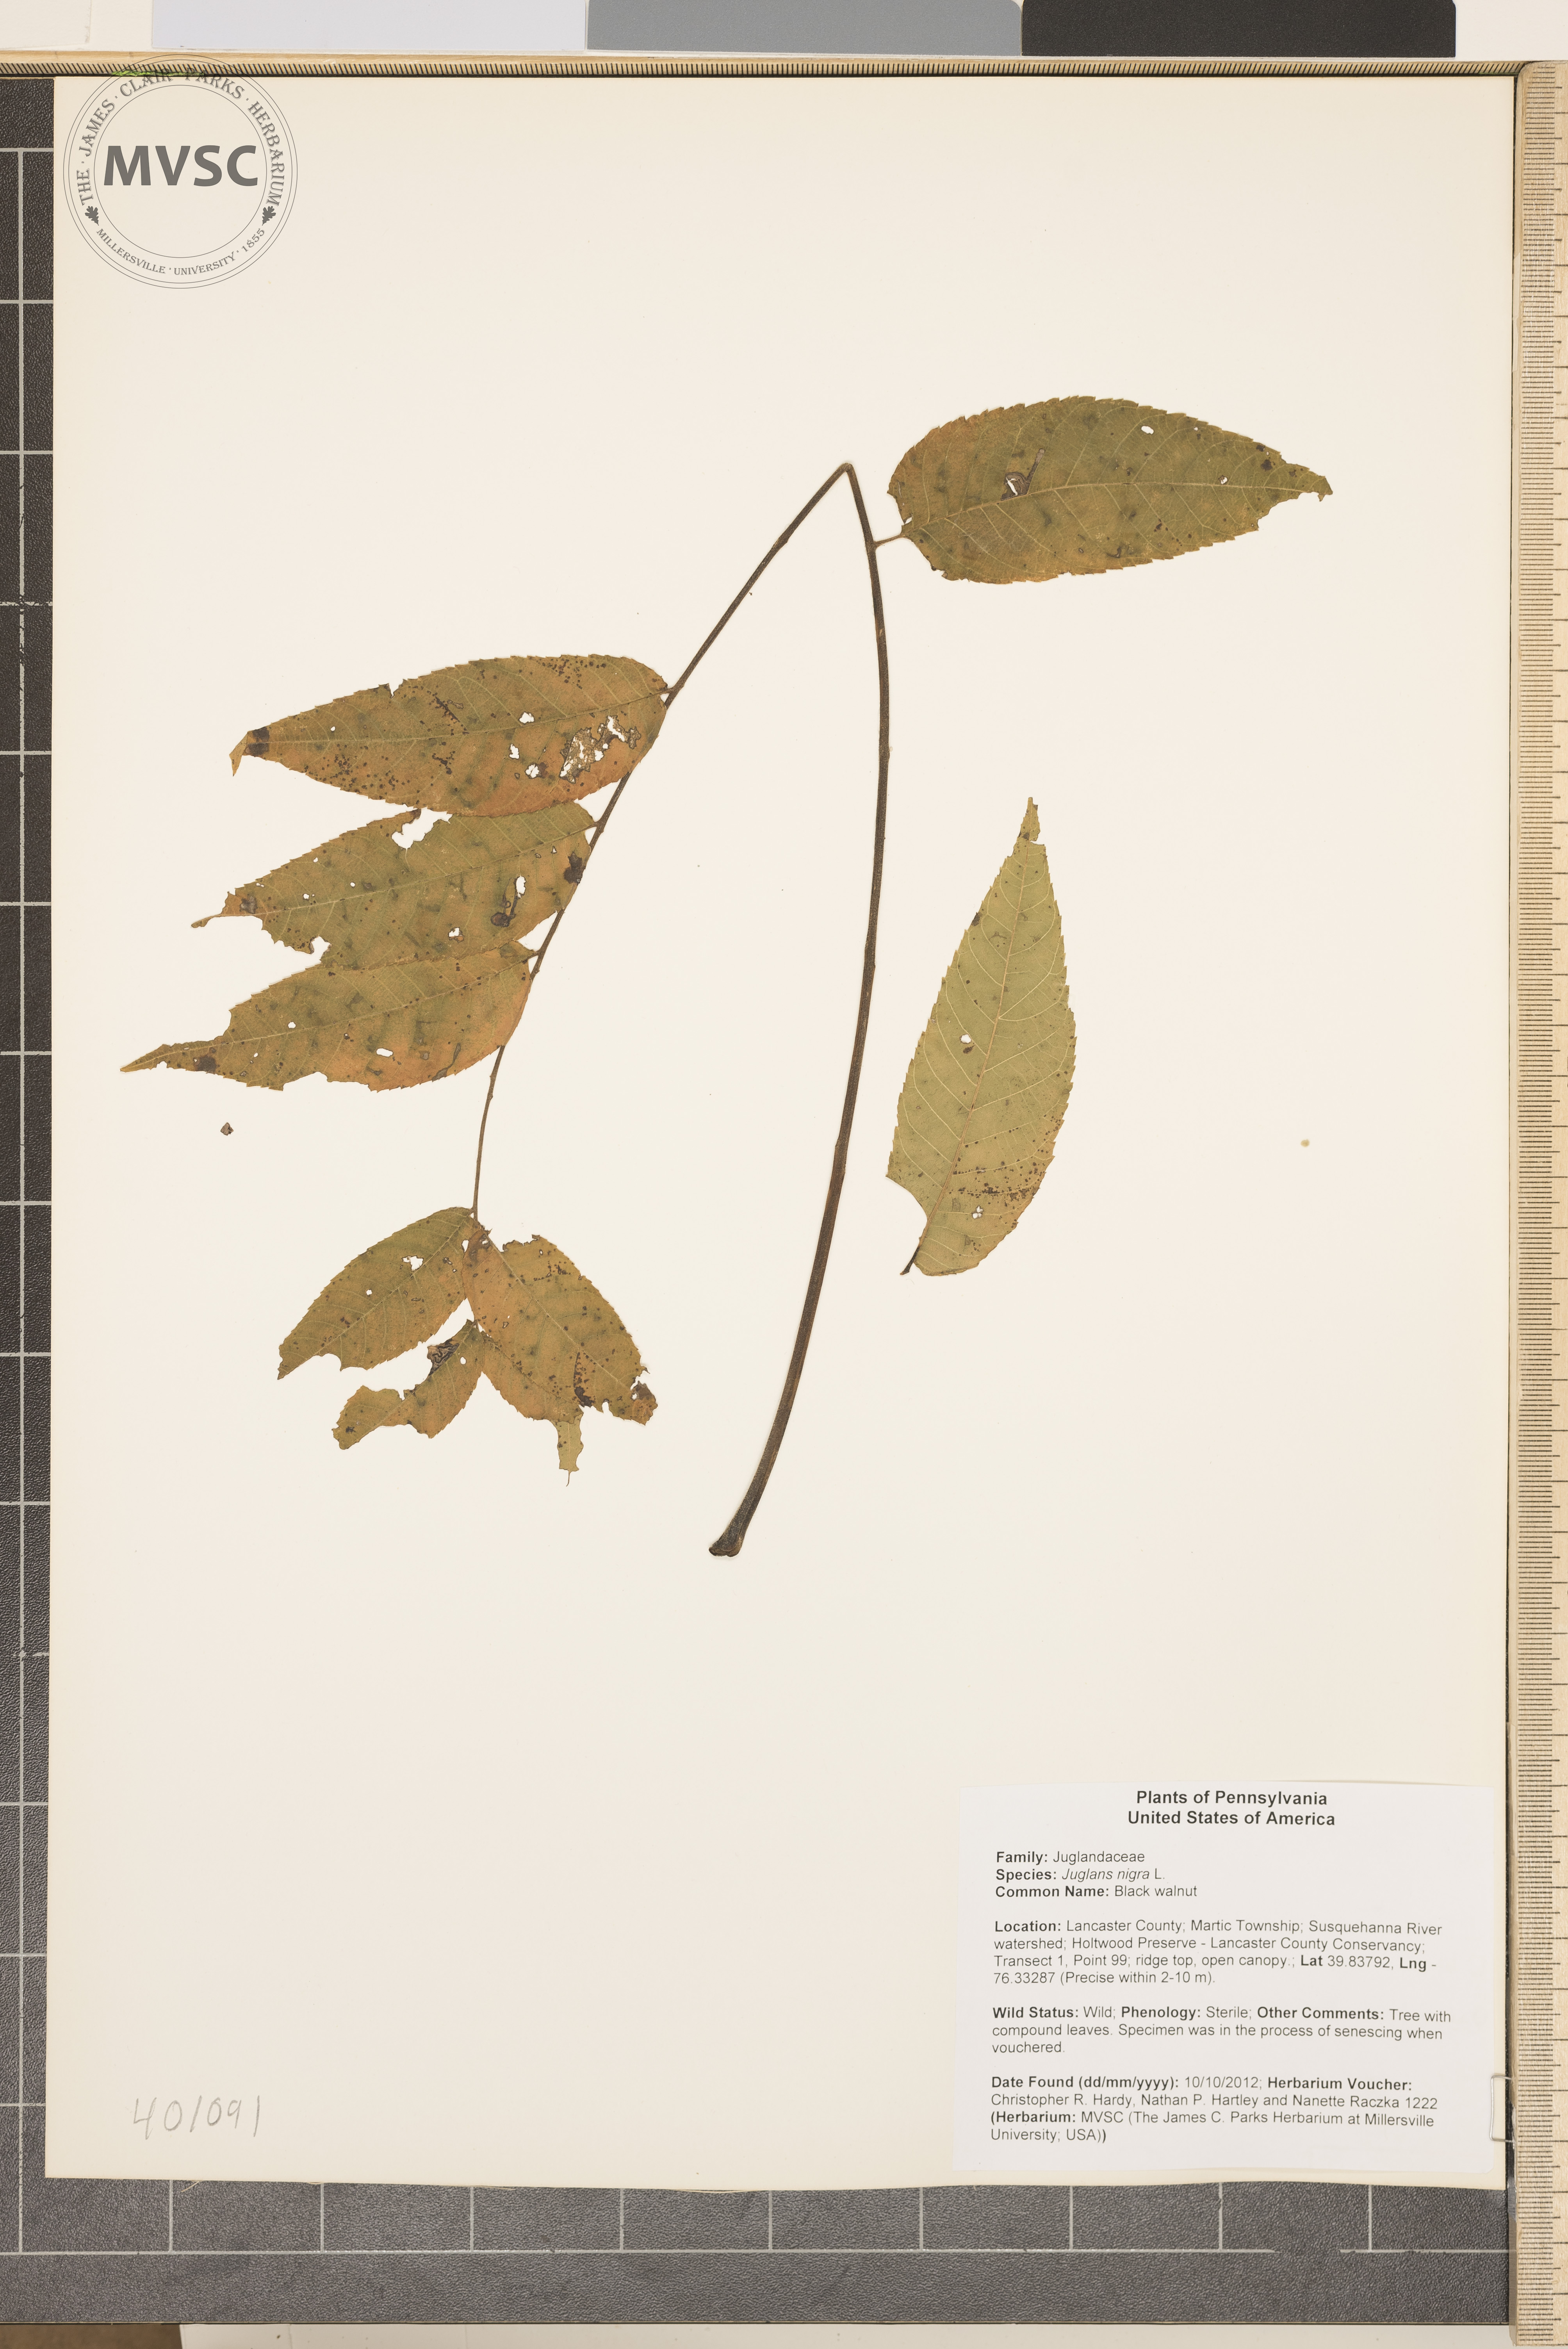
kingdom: Plantae
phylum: Tracheophyta
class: Magnoliopsida
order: Fagales
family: Juglandaceae
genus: Juglans
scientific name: Juglans nigra
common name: Black walnut
